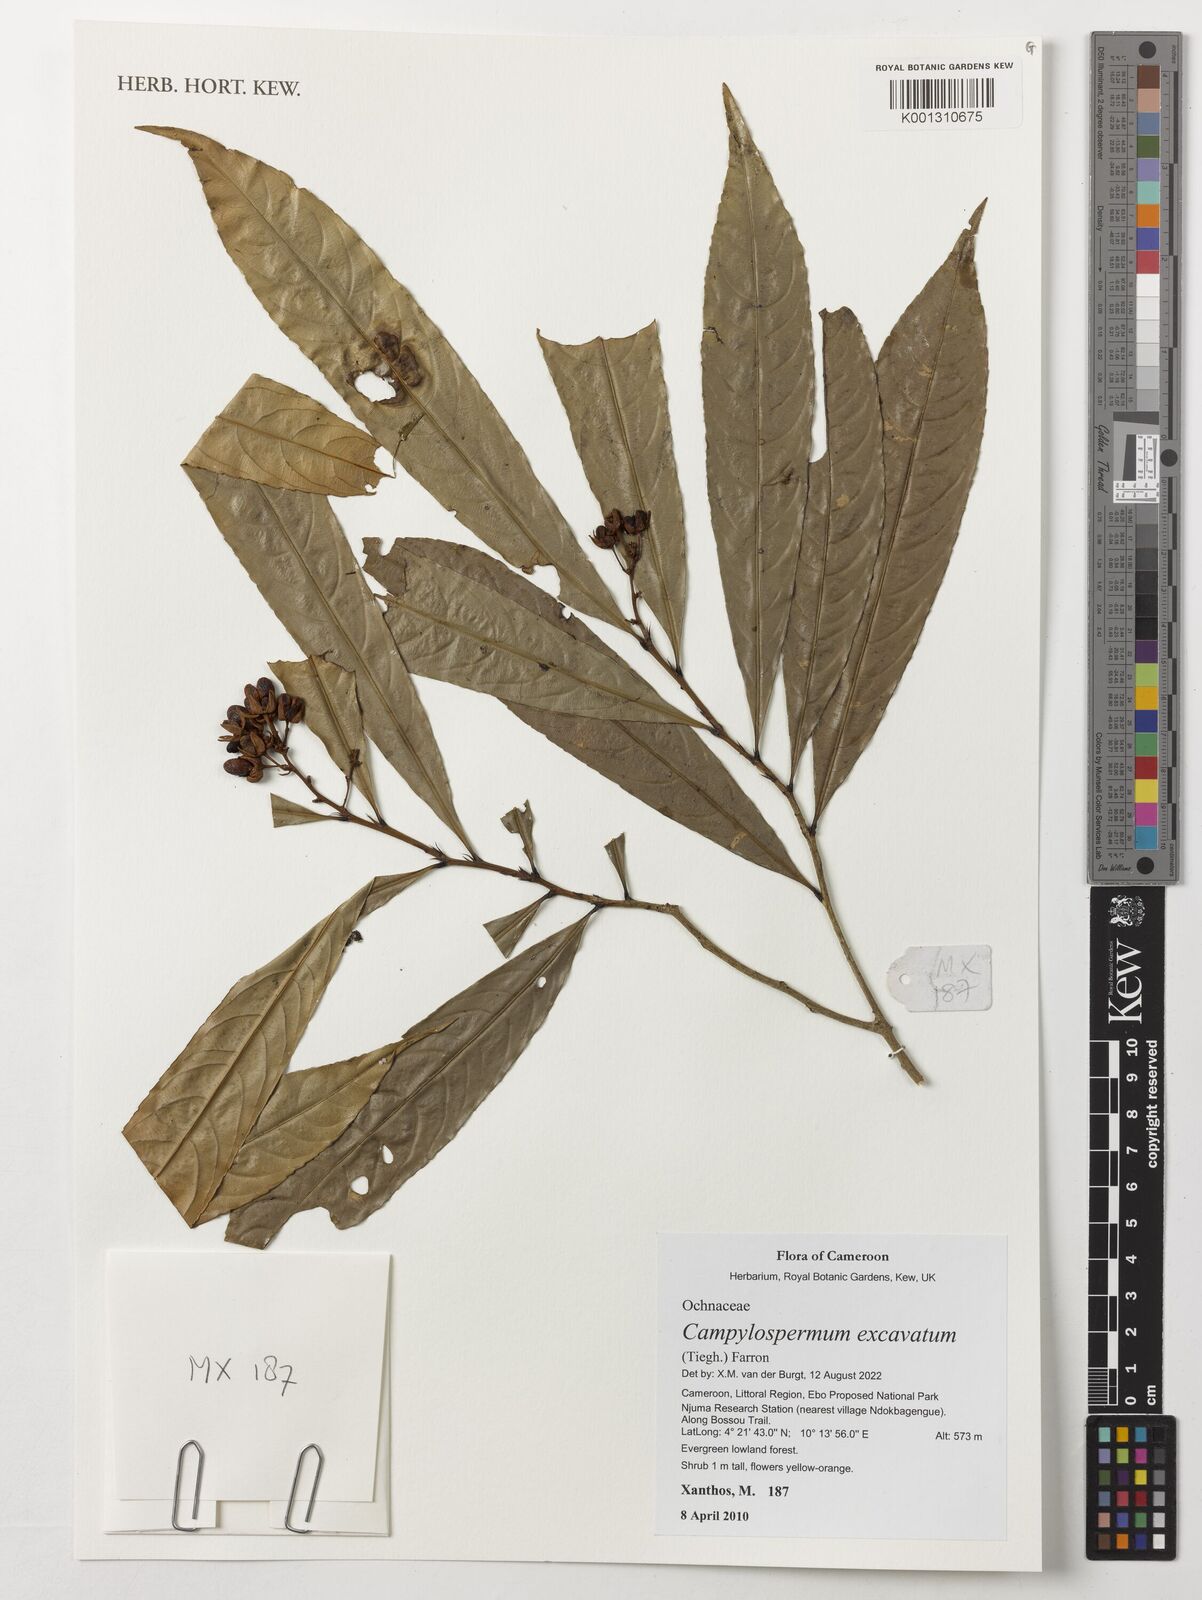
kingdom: Plantae
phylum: Tracheophyta
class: Magnoliopsida
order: Malpighiales
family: Ochnaceae
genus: Campylospermum
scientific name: Campylospermum excavatum
